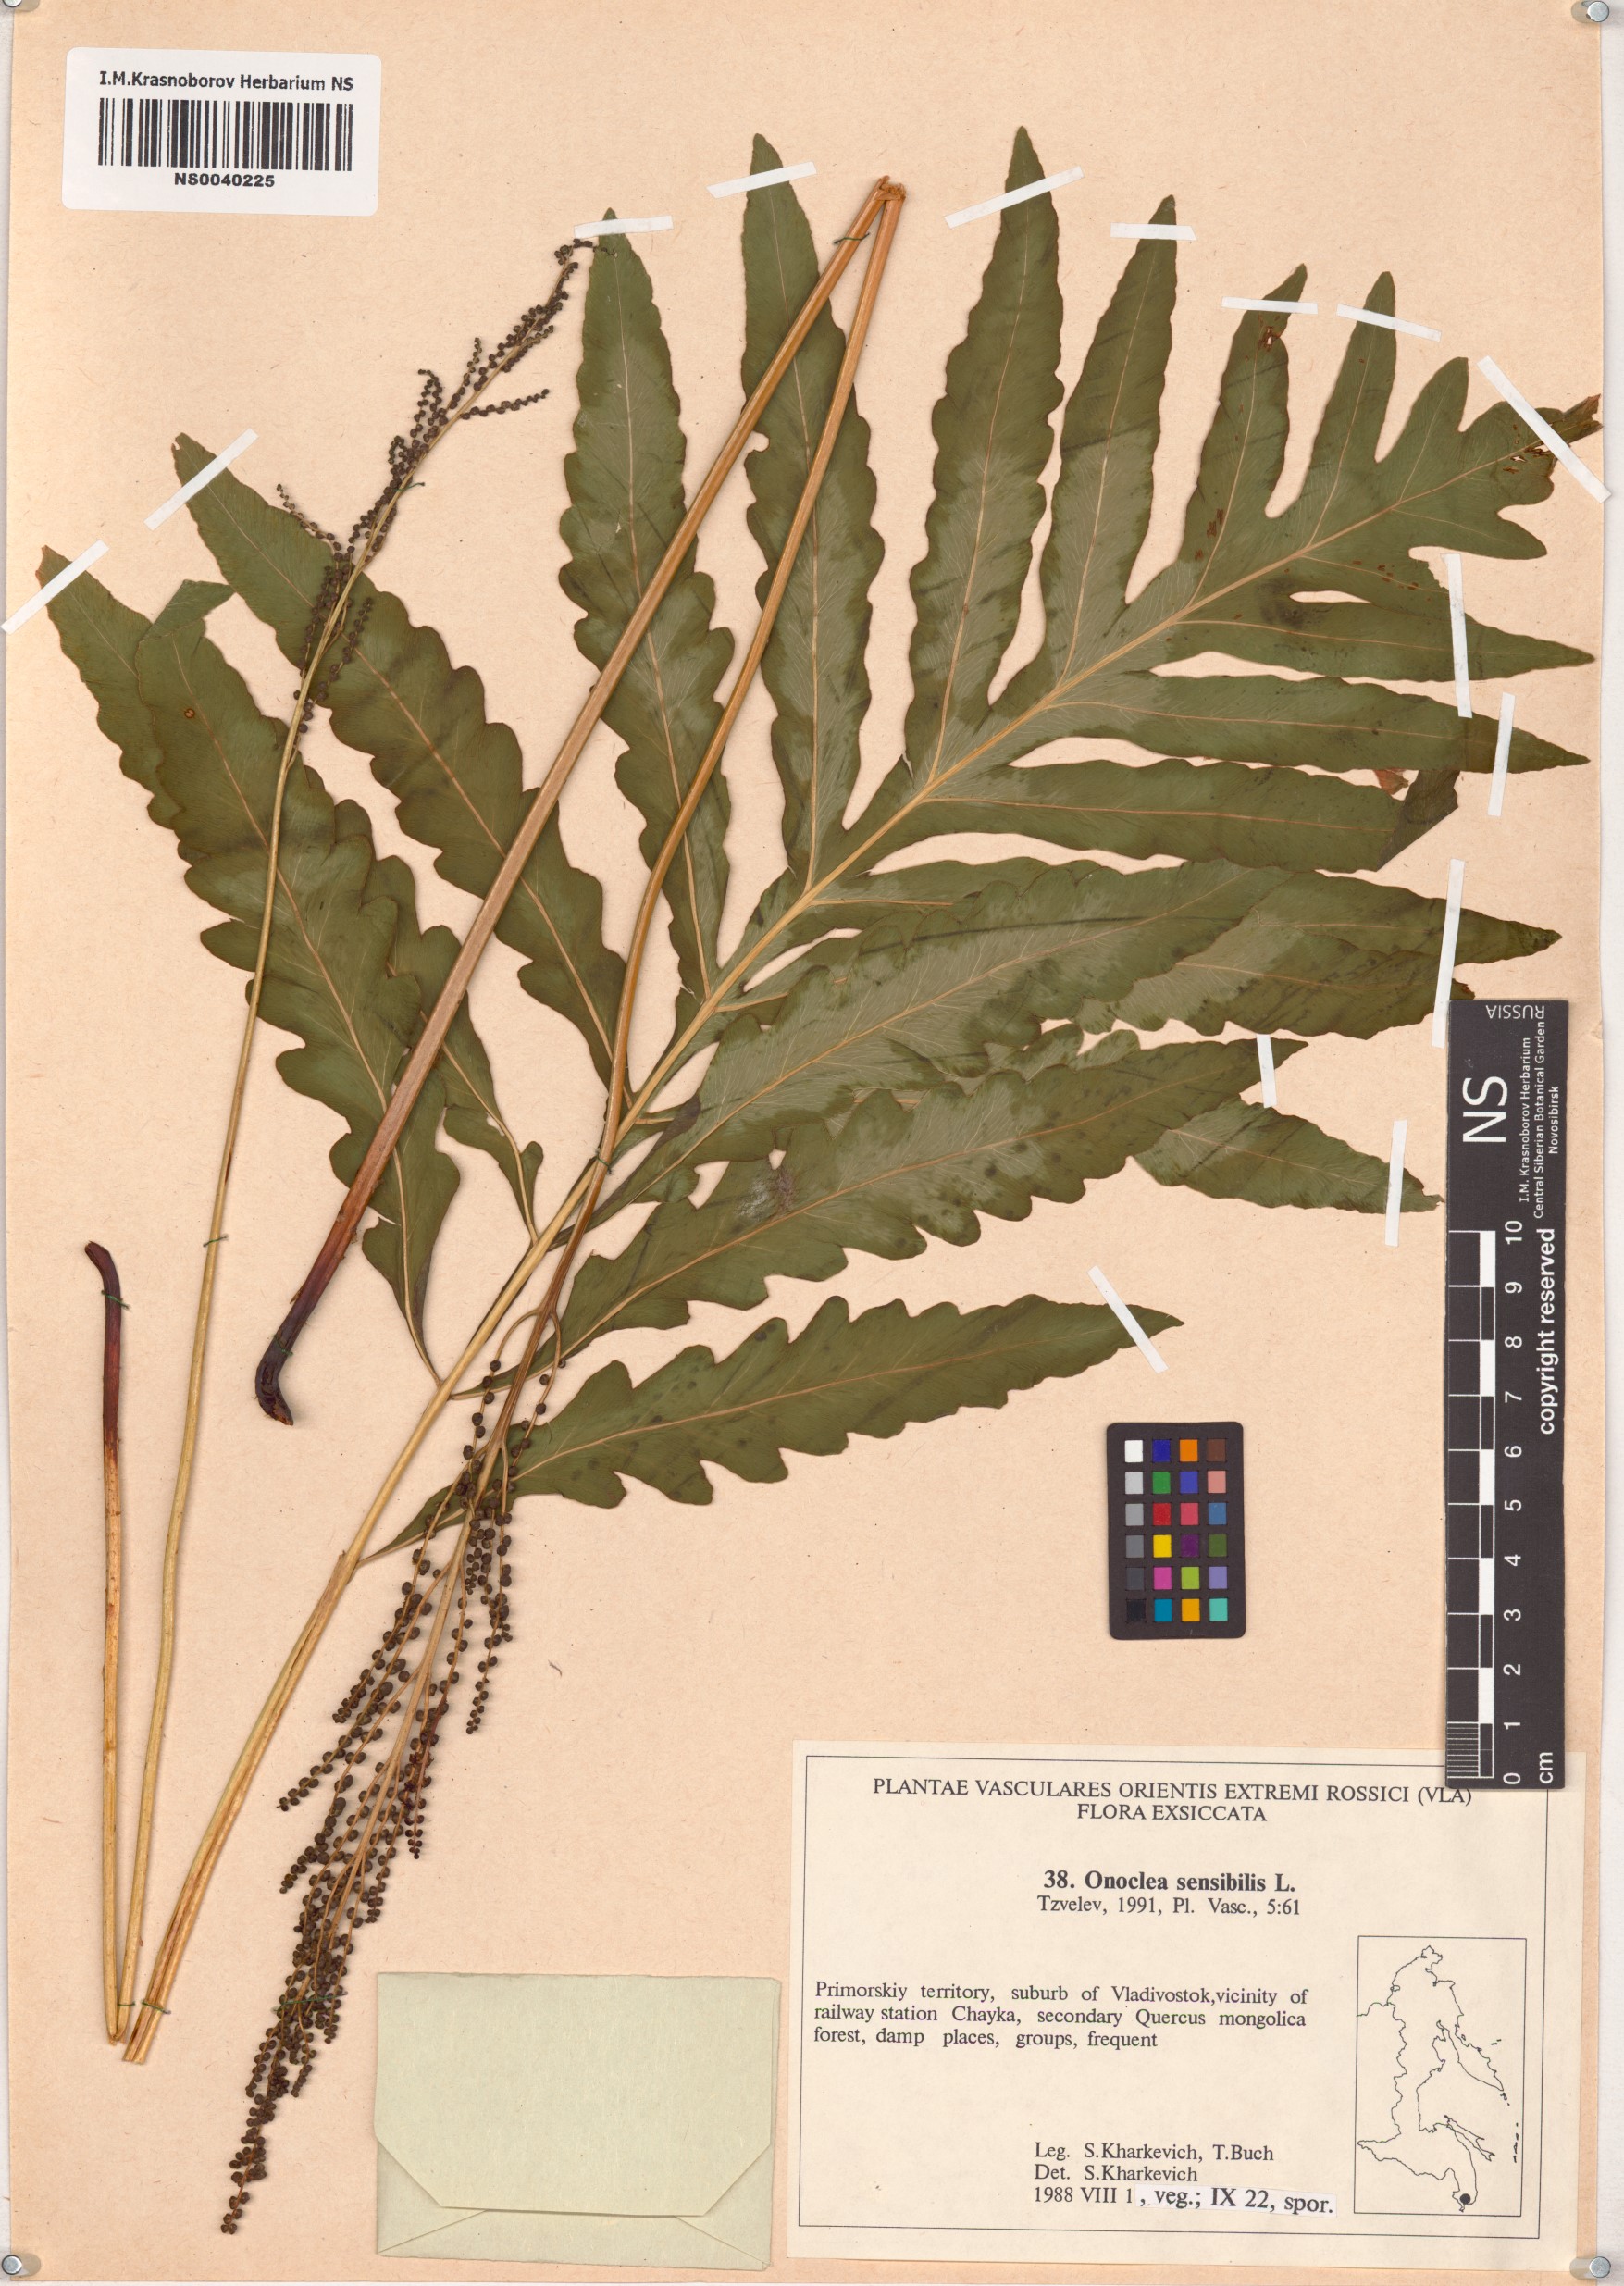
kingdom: Plantae
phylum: Tracheophyta
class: Polypodiopsida
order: Polypodiales
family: Onocleaceae
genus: Onoclea
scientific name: Onoclea sensibilis
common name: Sensitive fern
